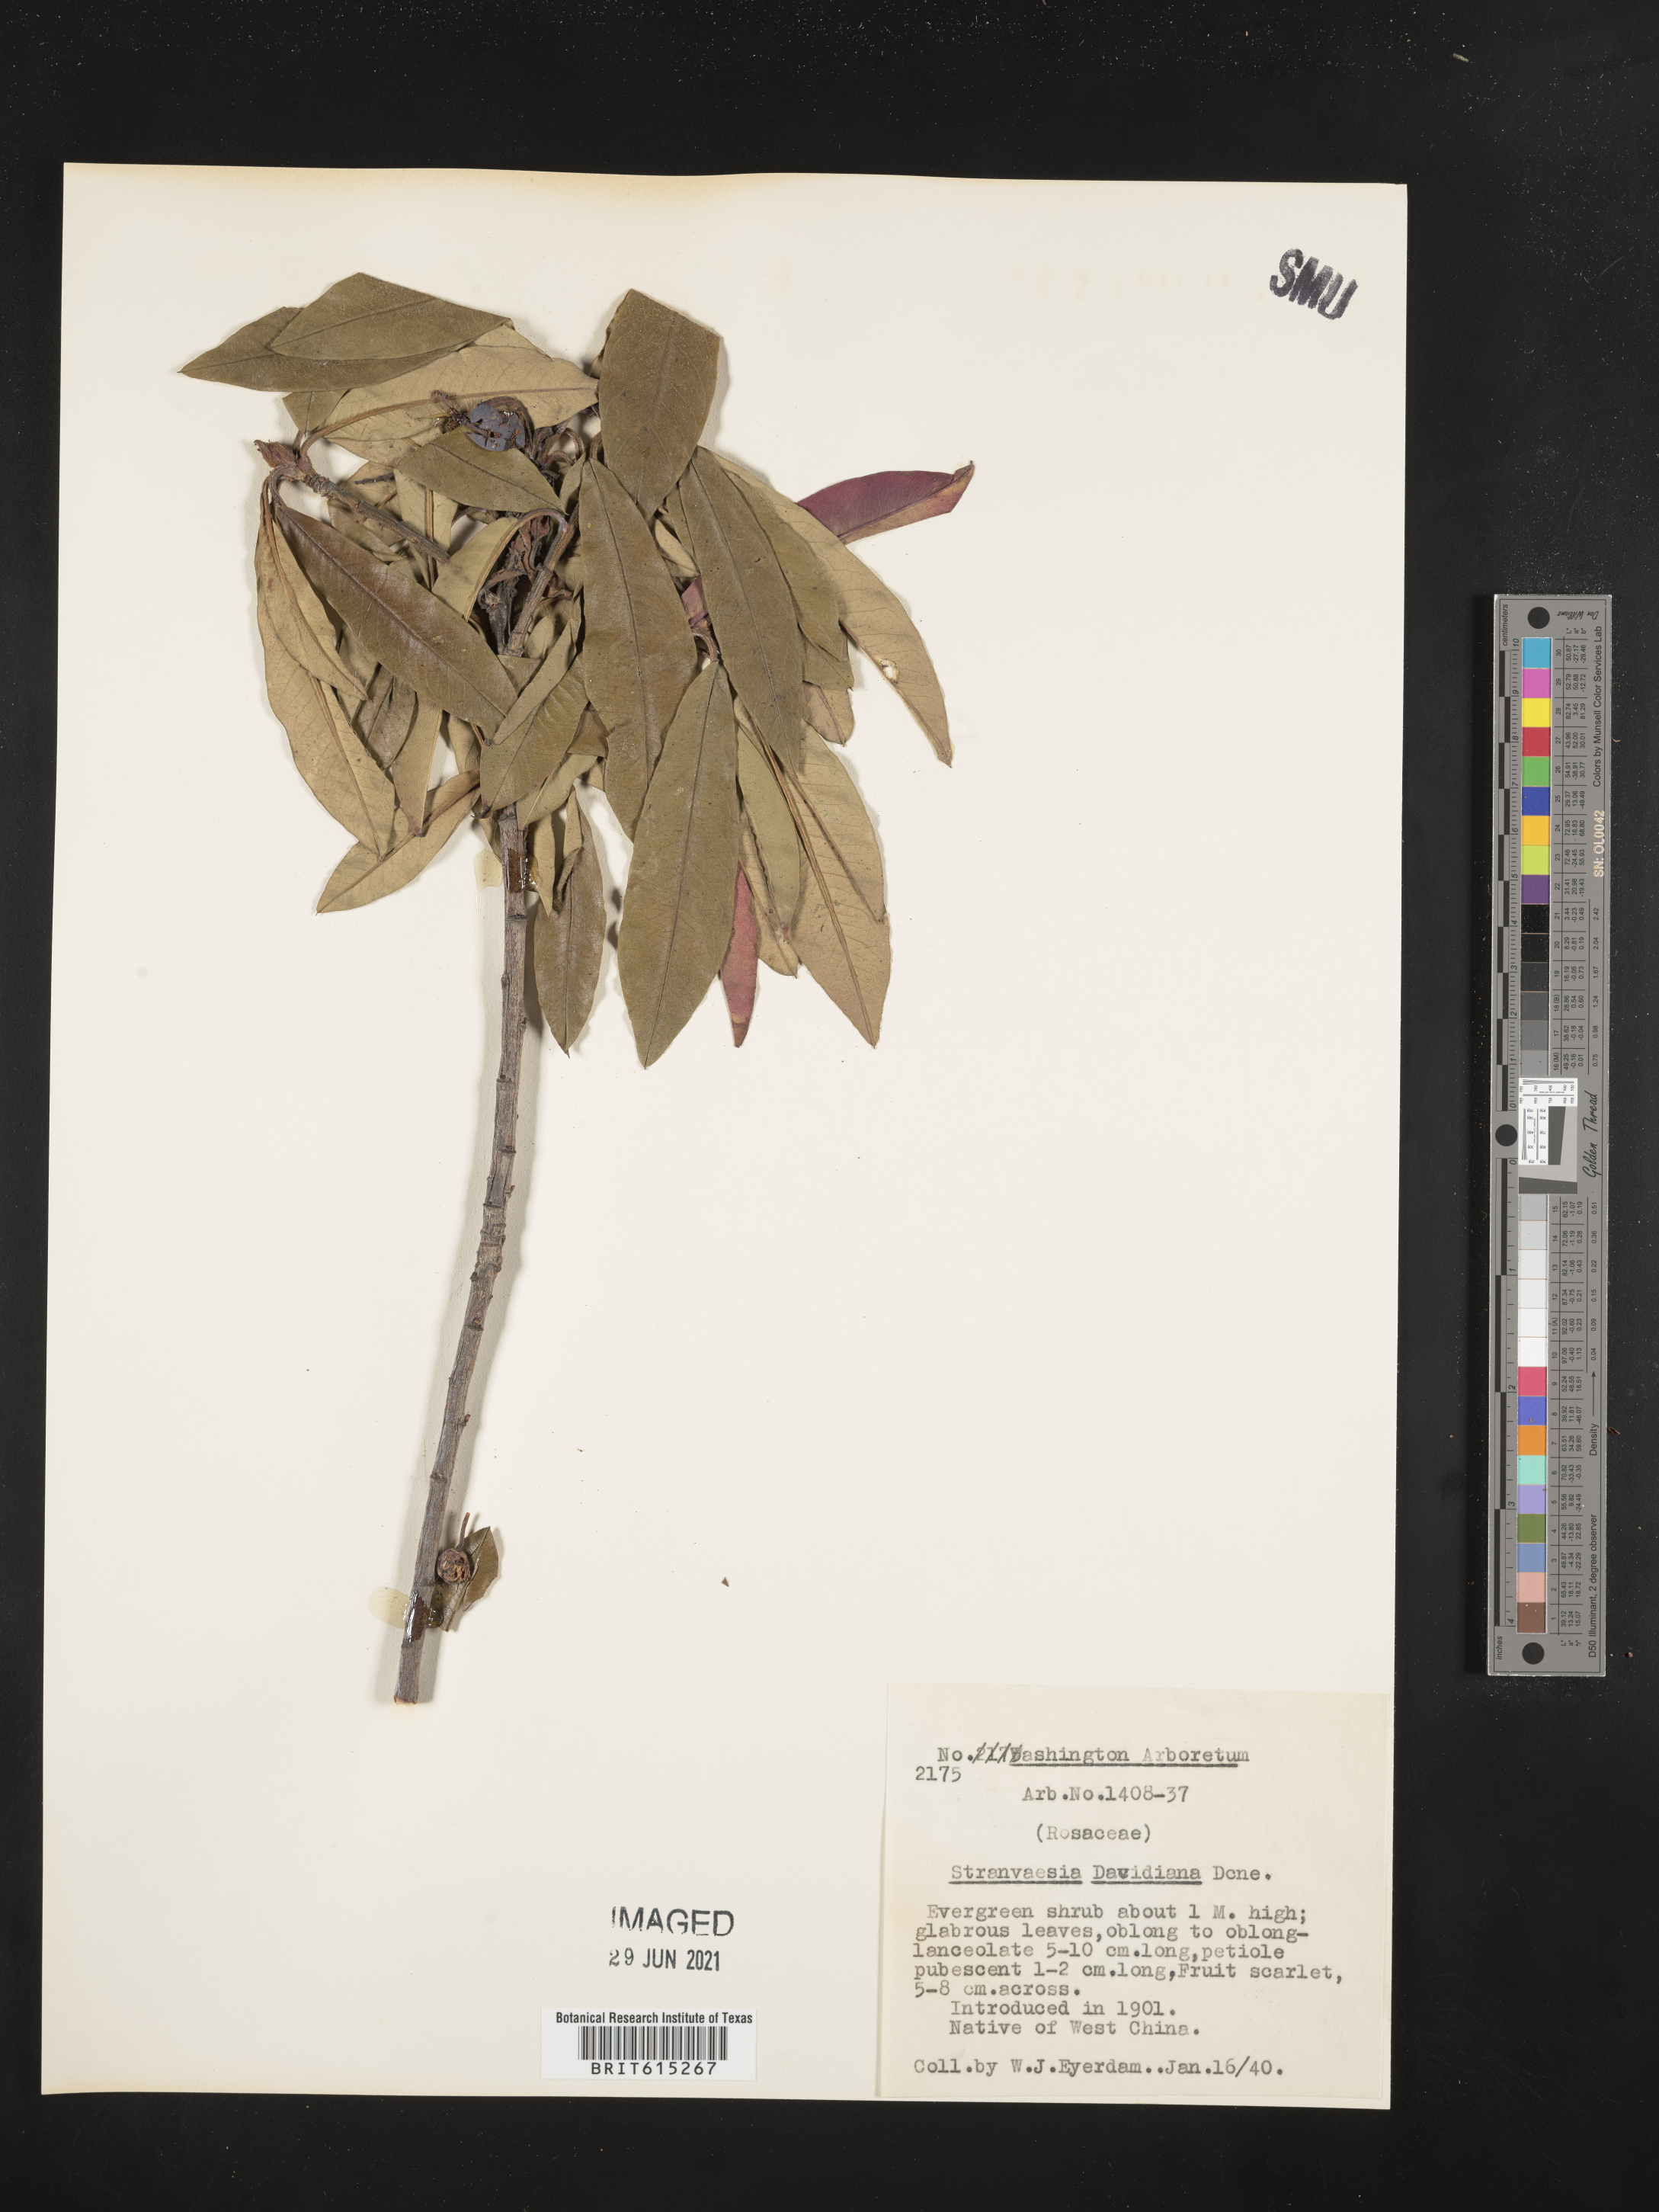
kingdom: Plantae
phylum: Tracheophyta
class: Magnoliopsida
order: Rosales
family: Rosaceae
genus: Stranvaesia
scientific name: Stranvaesia davidiana
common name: Chinese photinia
